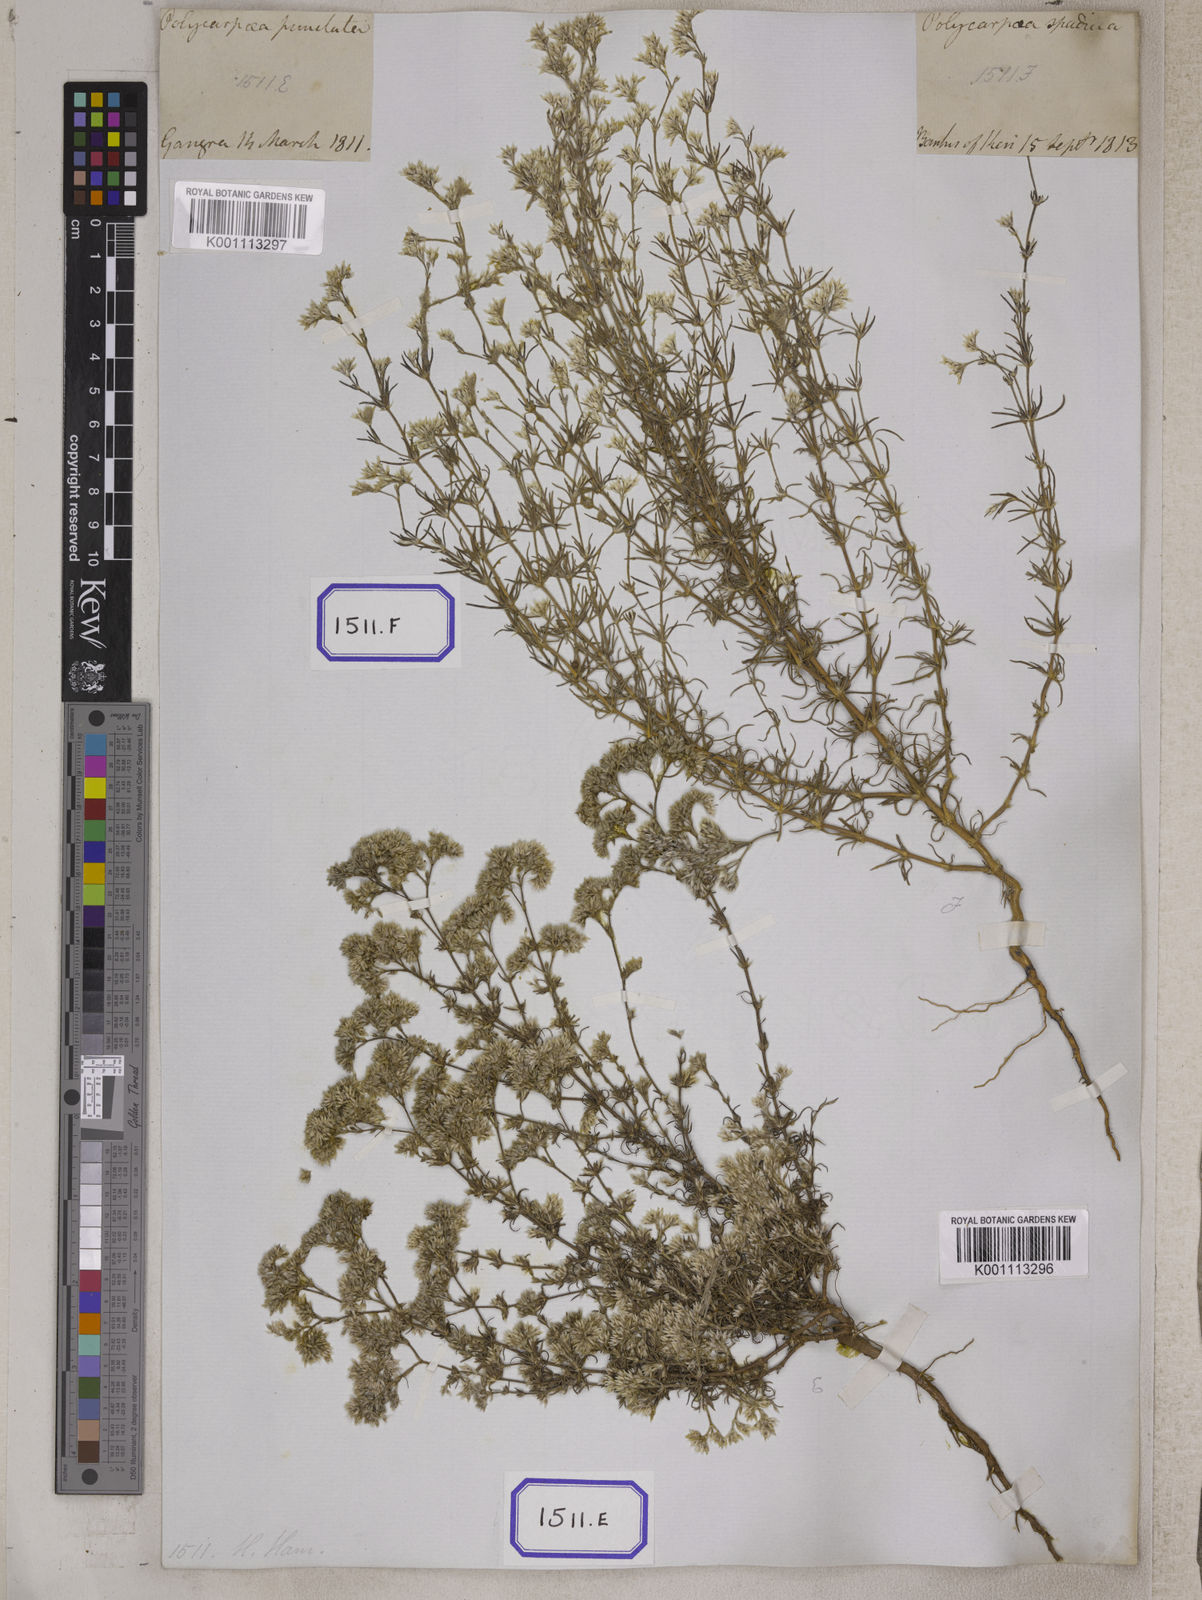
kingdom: Plantae
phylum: Tracheophyta
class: Magnoliopsida
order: Caryophyllales
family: Caryophyllaceae
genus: Polycarpaea
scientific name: Polycarpaea corymbosa
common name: Oldman's cap
